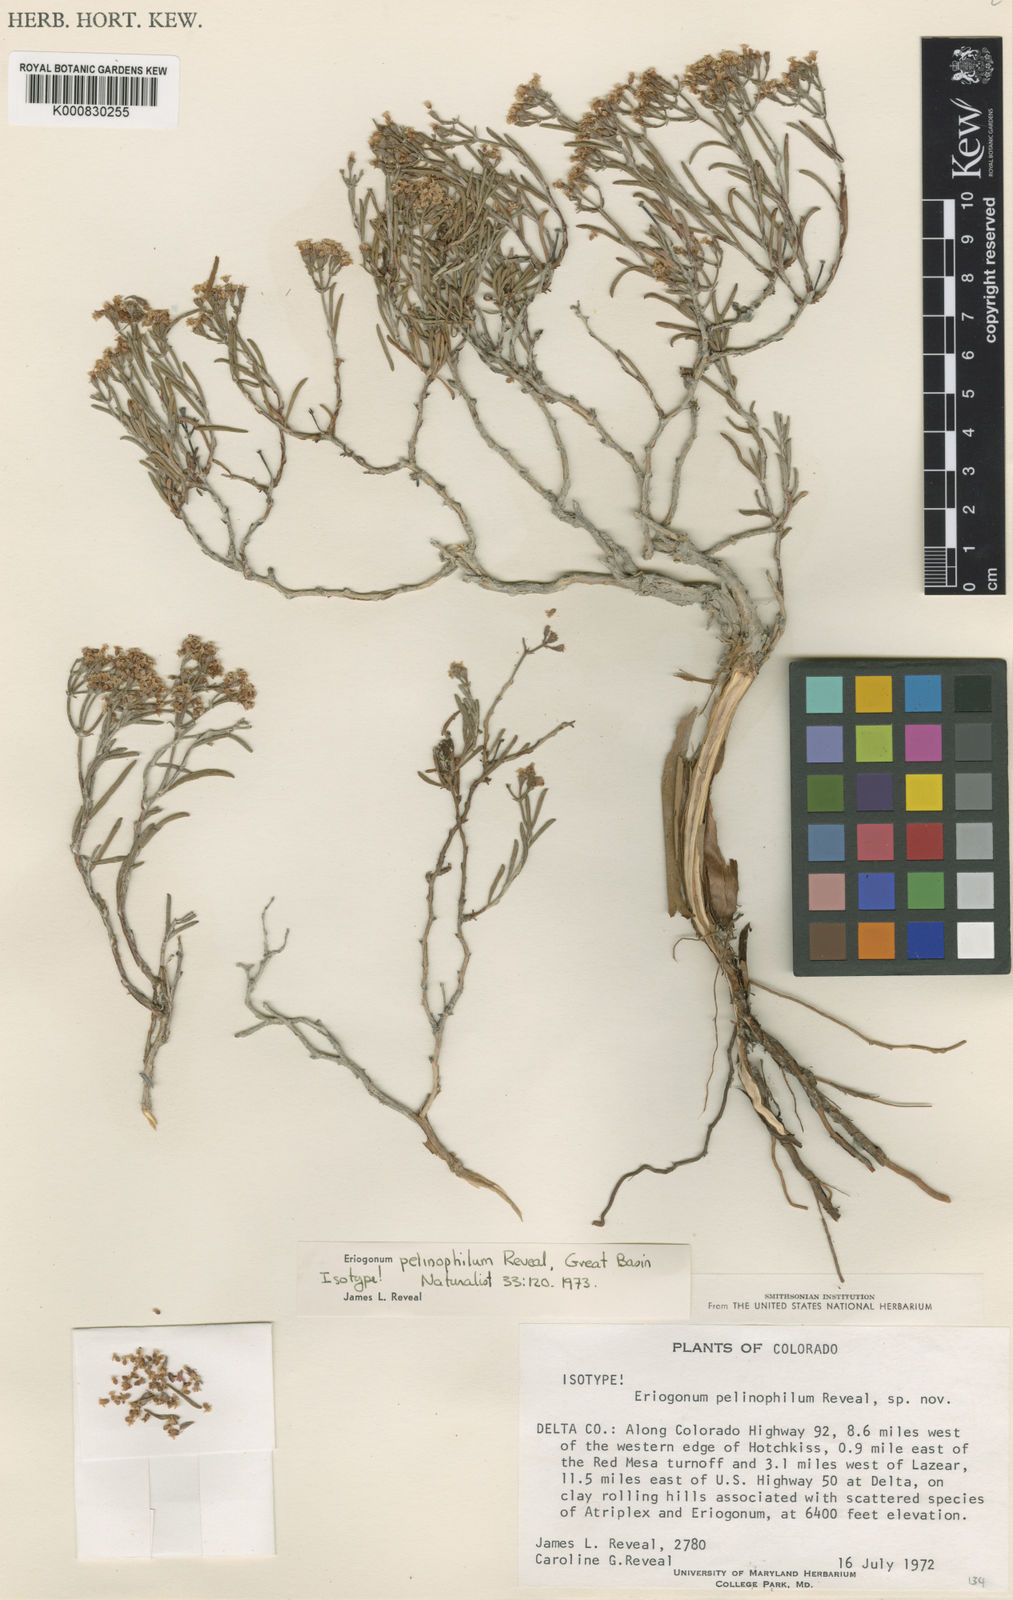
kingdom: Plantae
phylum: Tracheophyta
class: Magnoliopsida
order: Caryophyllales
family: Polygonaceae
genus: Eriogonum
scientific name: Eriogonum pelinophilum
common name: Clay-loving wild buckwheat
